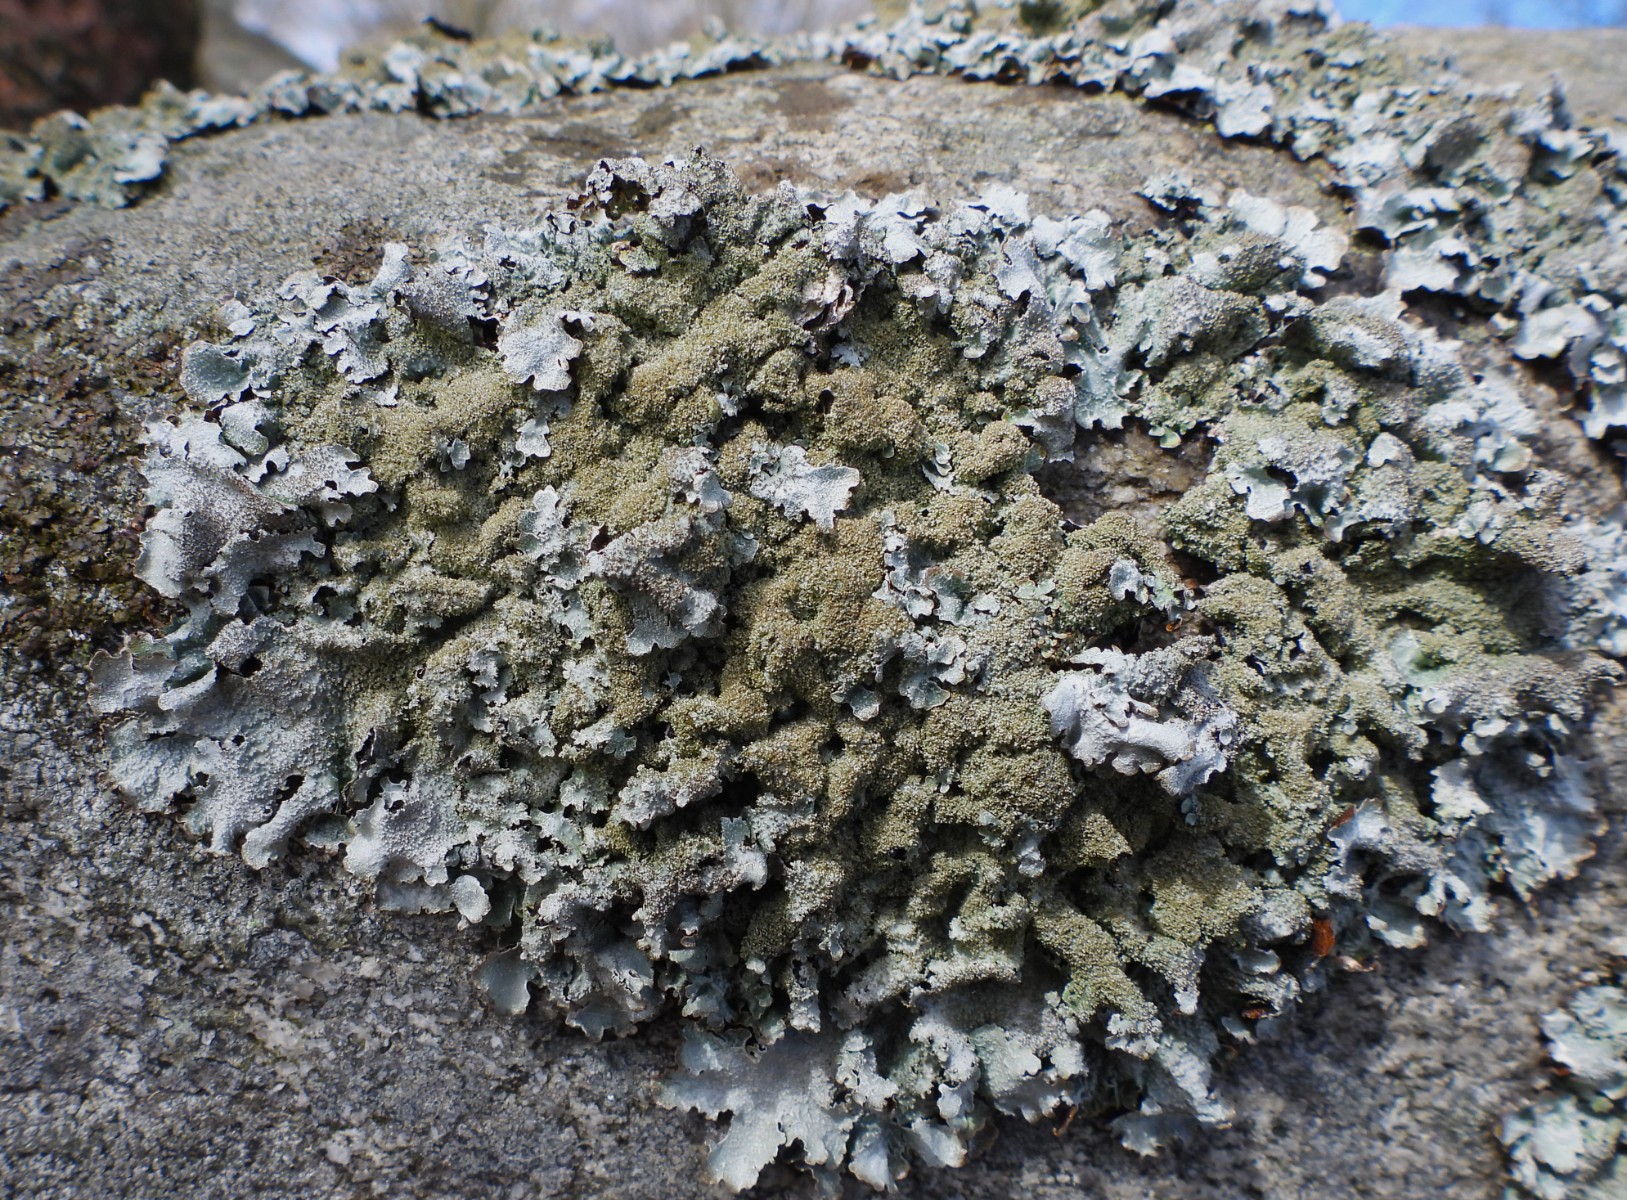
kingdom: Fungi
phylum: Ascomycota
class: Lecanoromycetes
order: Lecanorales
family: Parmeliaceae
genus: Parmelia
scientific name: Parmelia saxatilis
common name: farve-skållav
